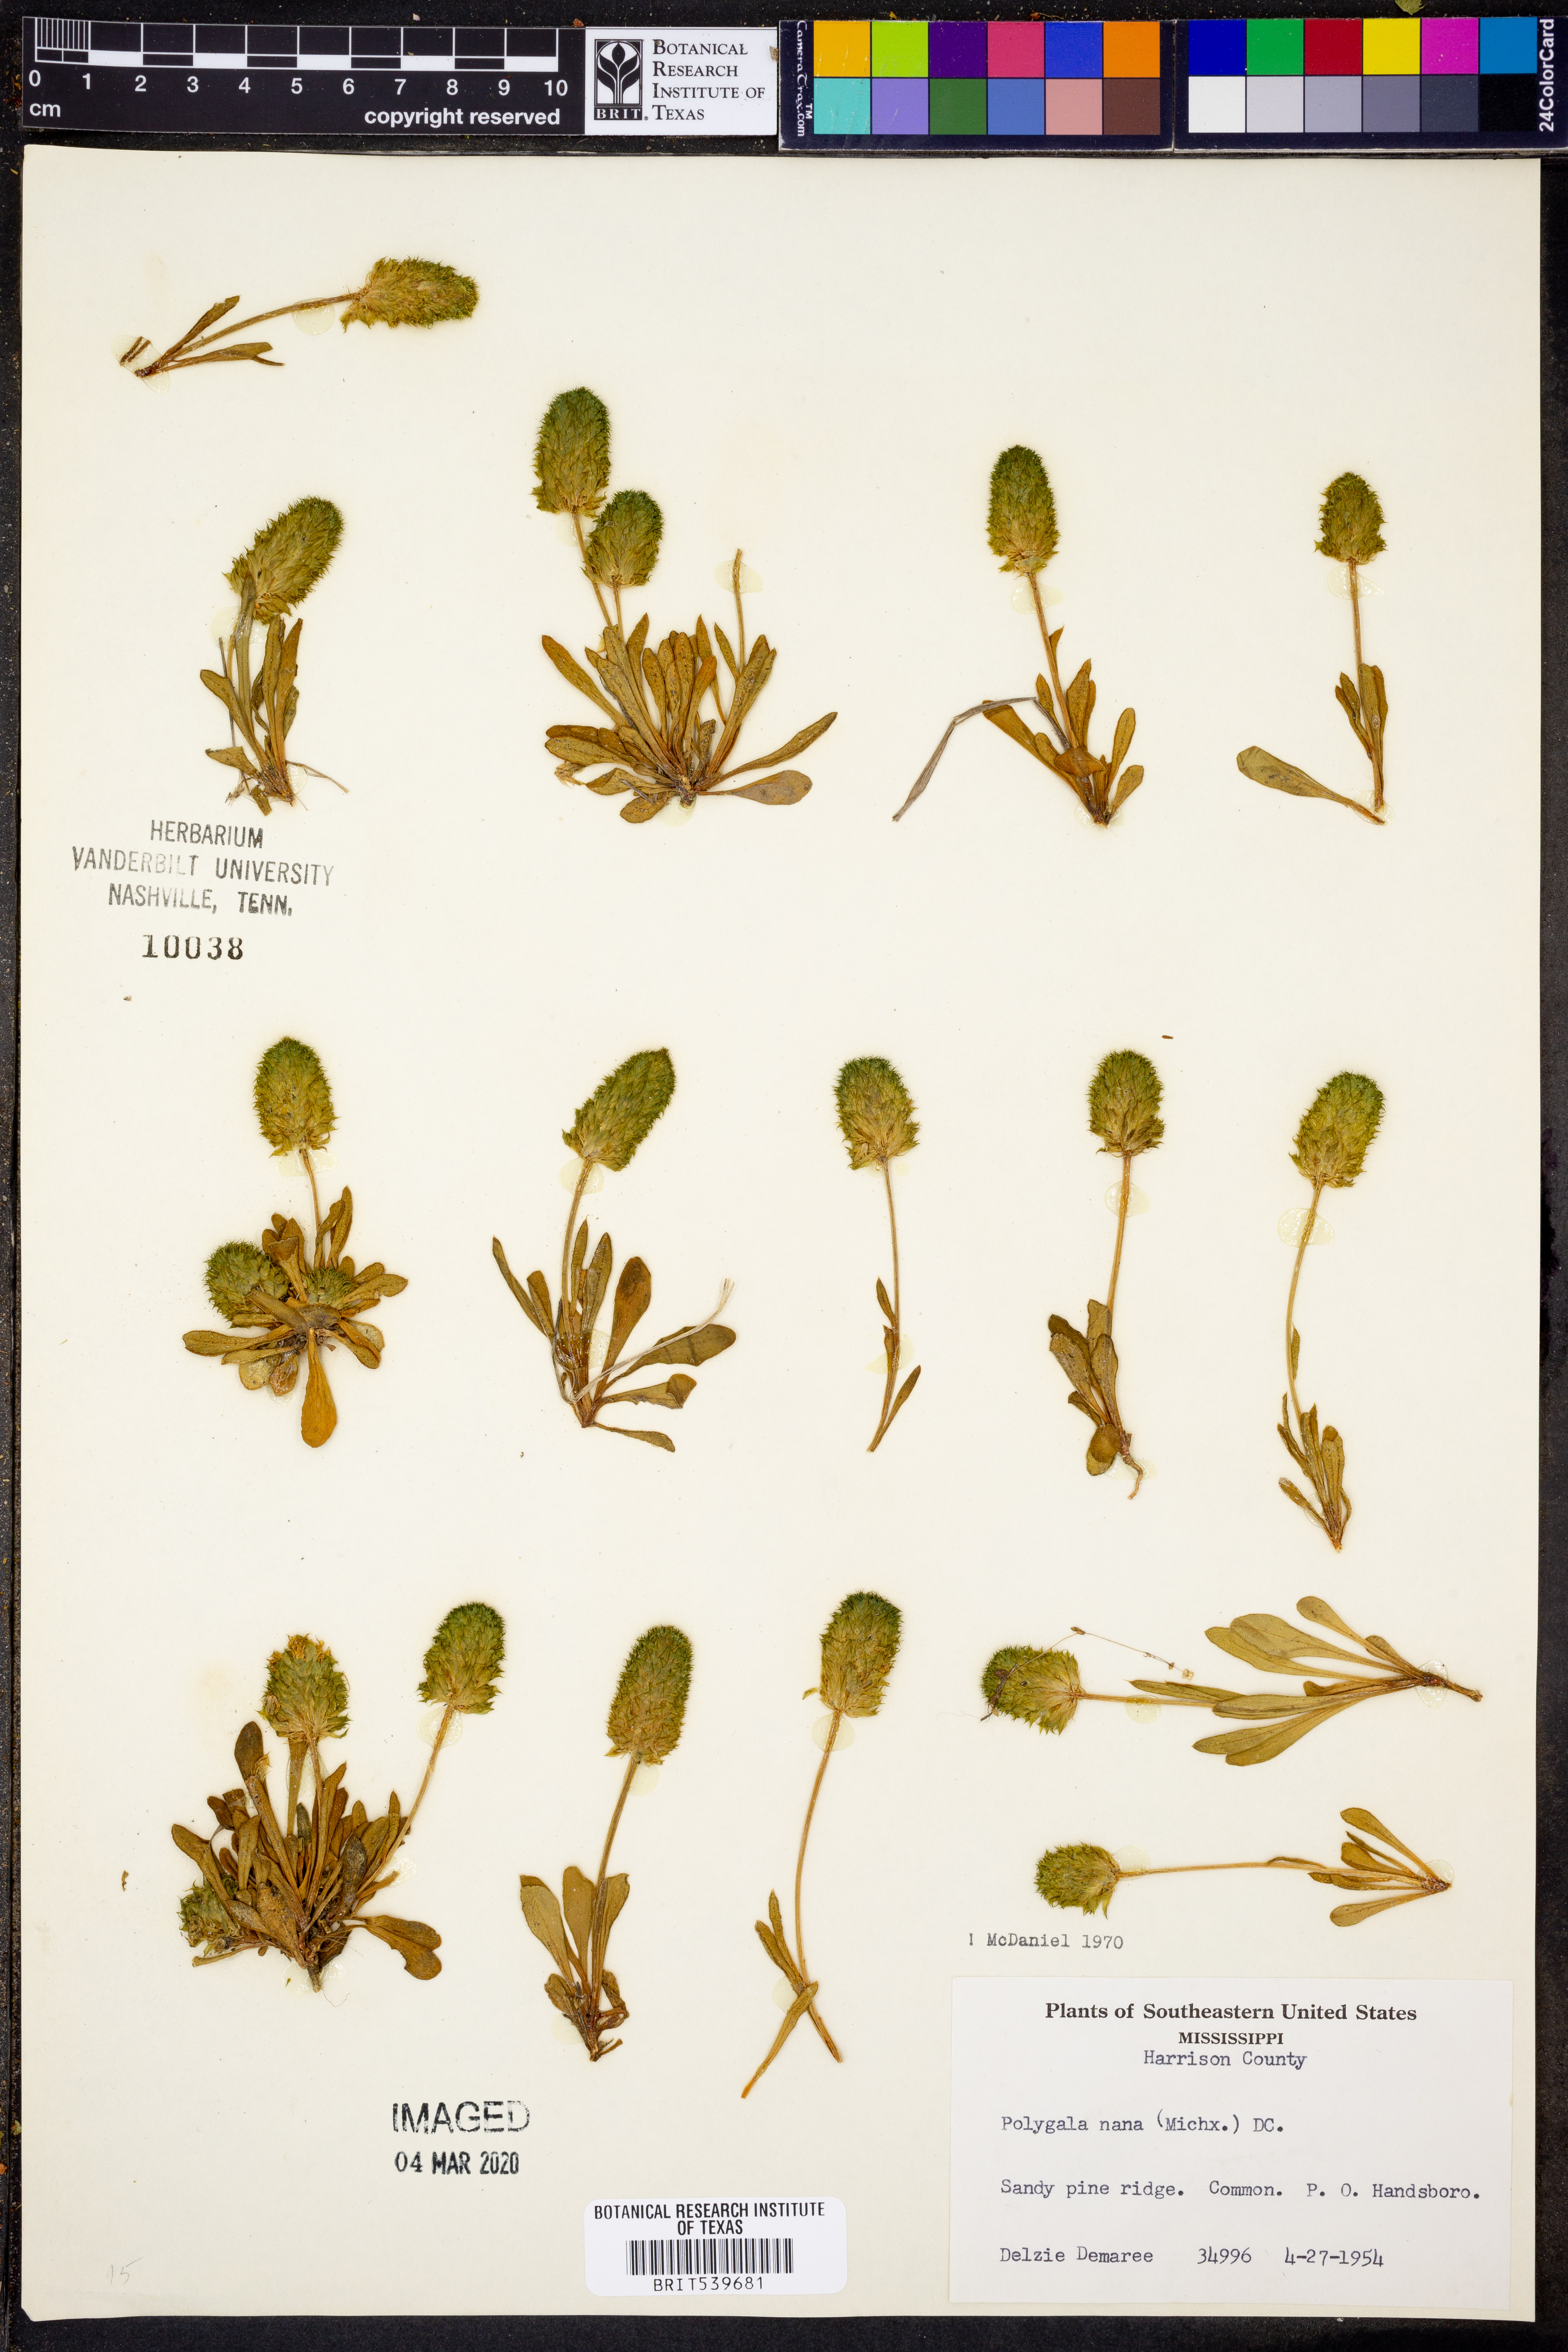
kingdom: Plantae
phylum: Tracheophyta
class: Magnoliopsida
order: Fabales
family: Polygalaceae
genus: Polygala
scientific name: Polygala nana
